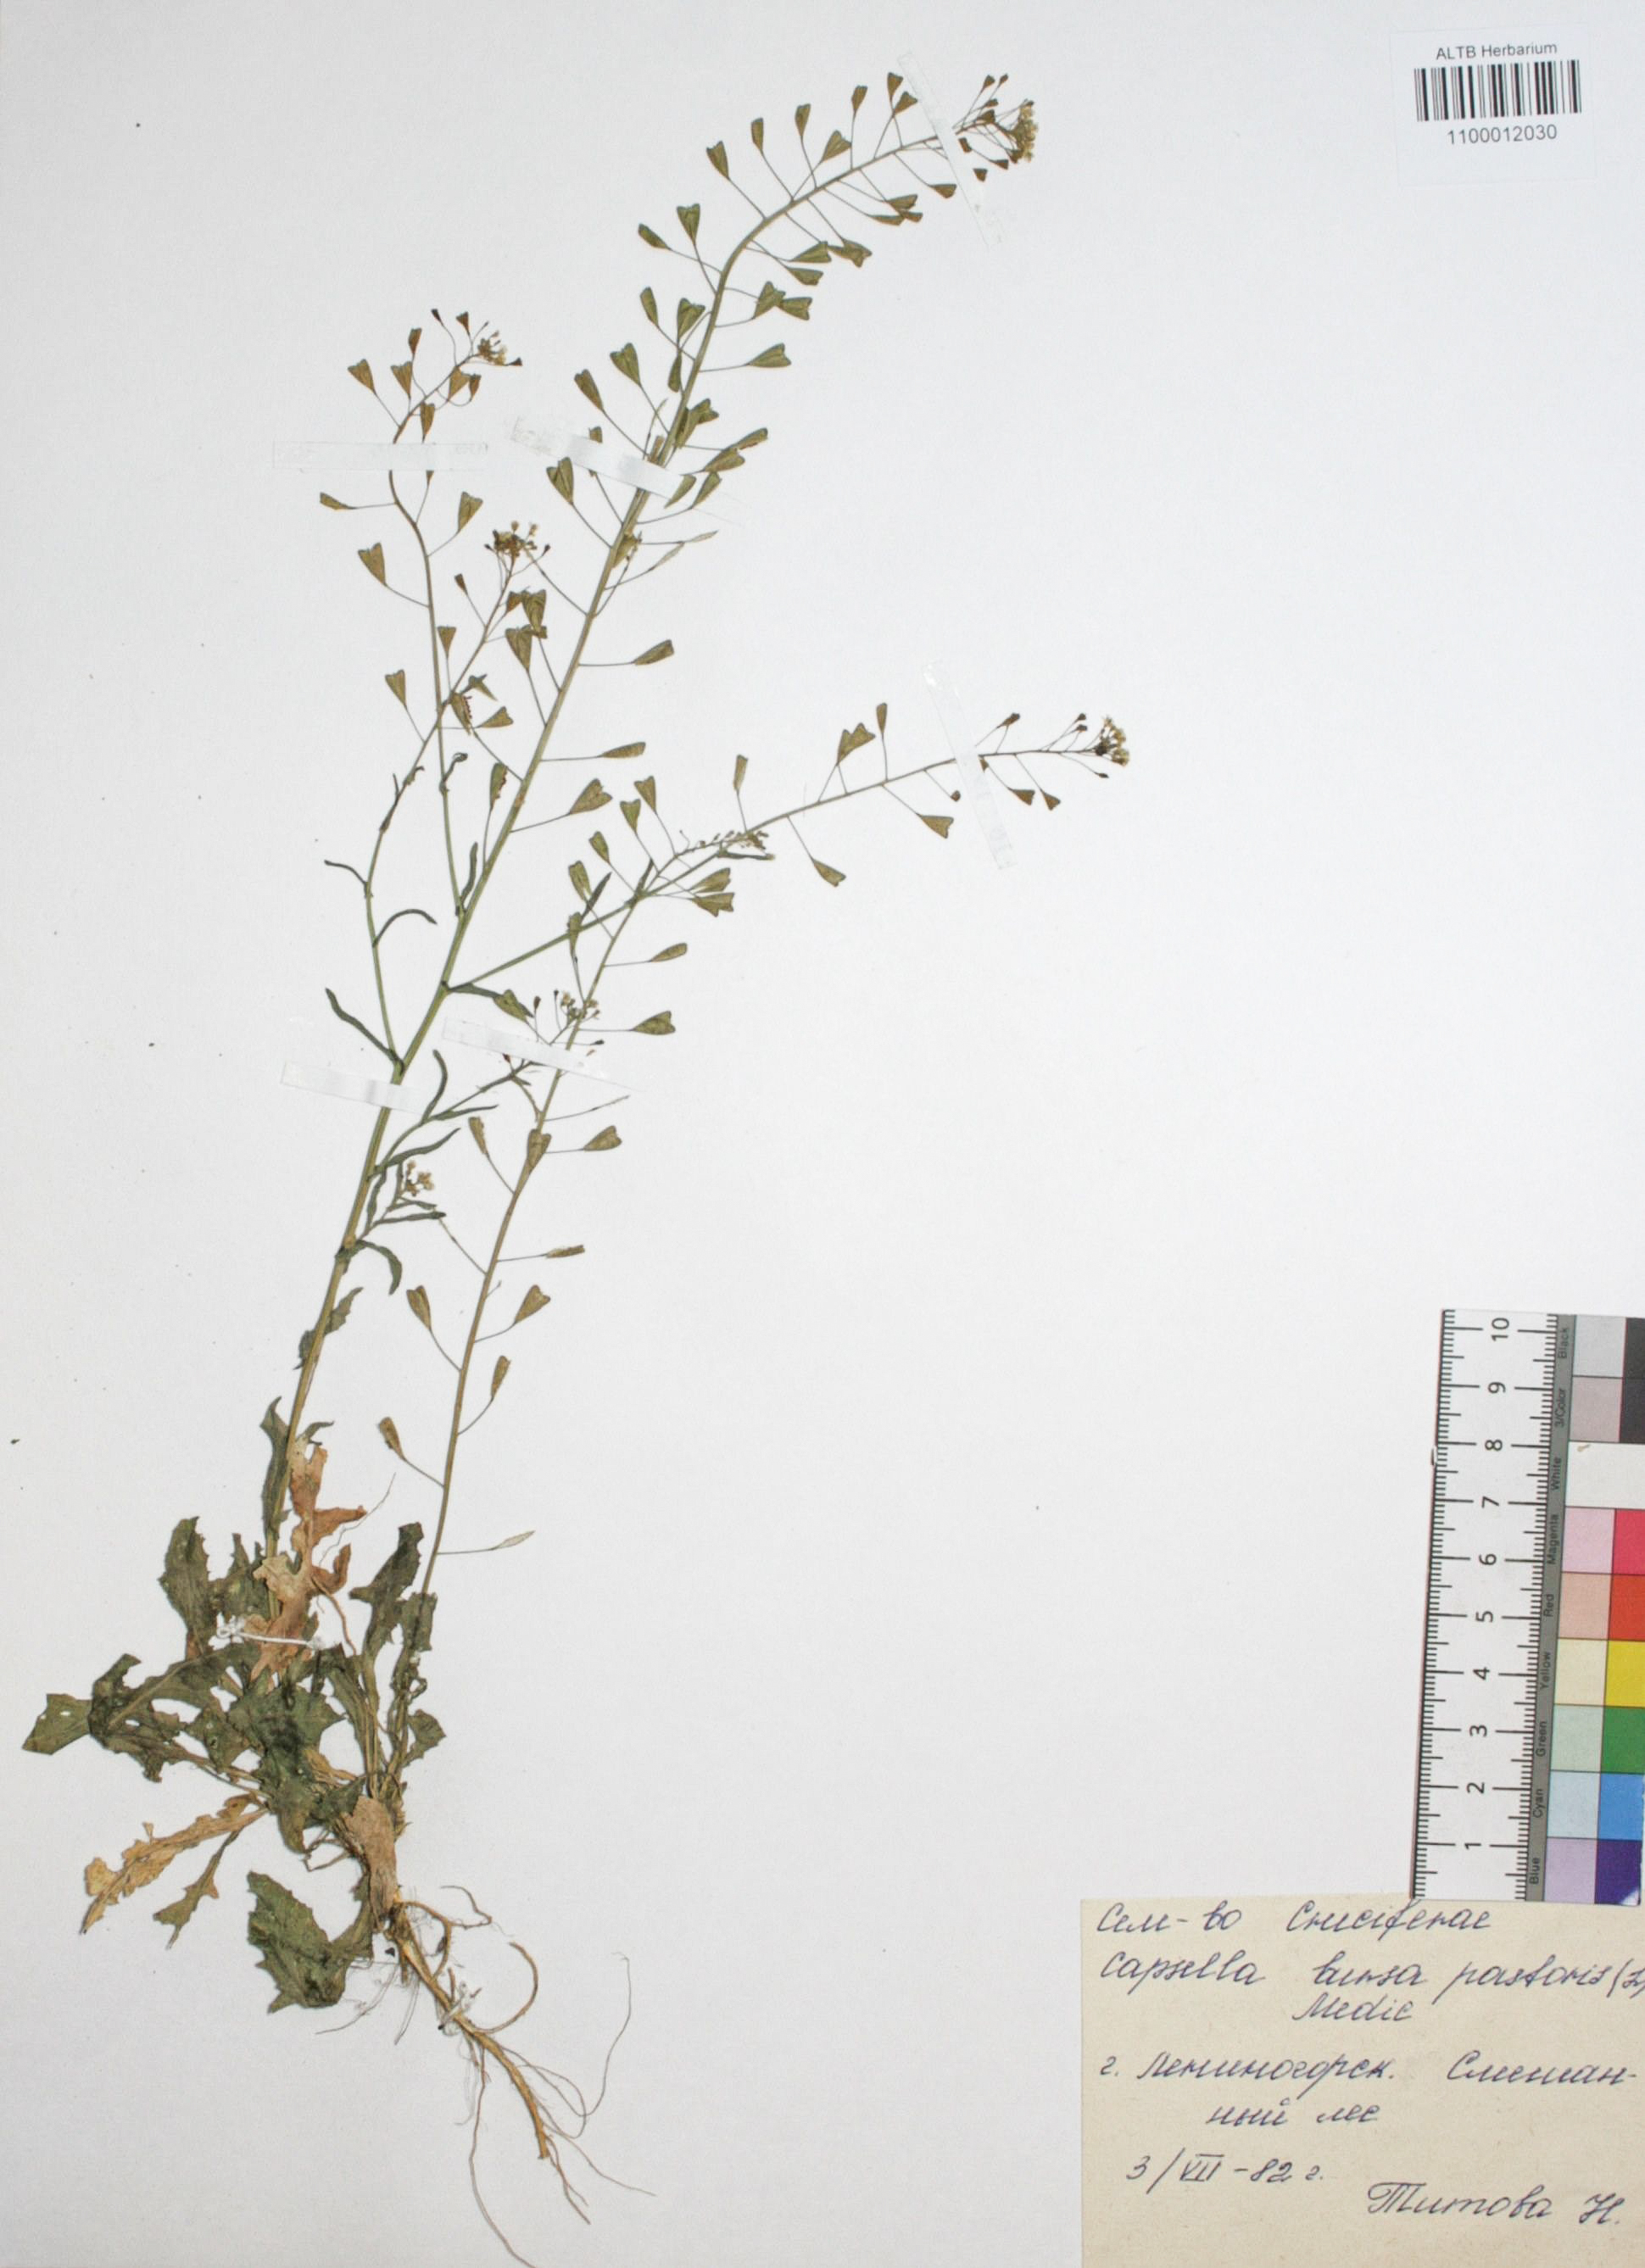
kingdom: Plantae
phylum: Tracheophyta
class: Magnoliopsida
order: Brassicales
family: Brassicaceae
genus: Capsella
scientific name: Capsella bursa-pastoris
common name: Shepherd's purse
